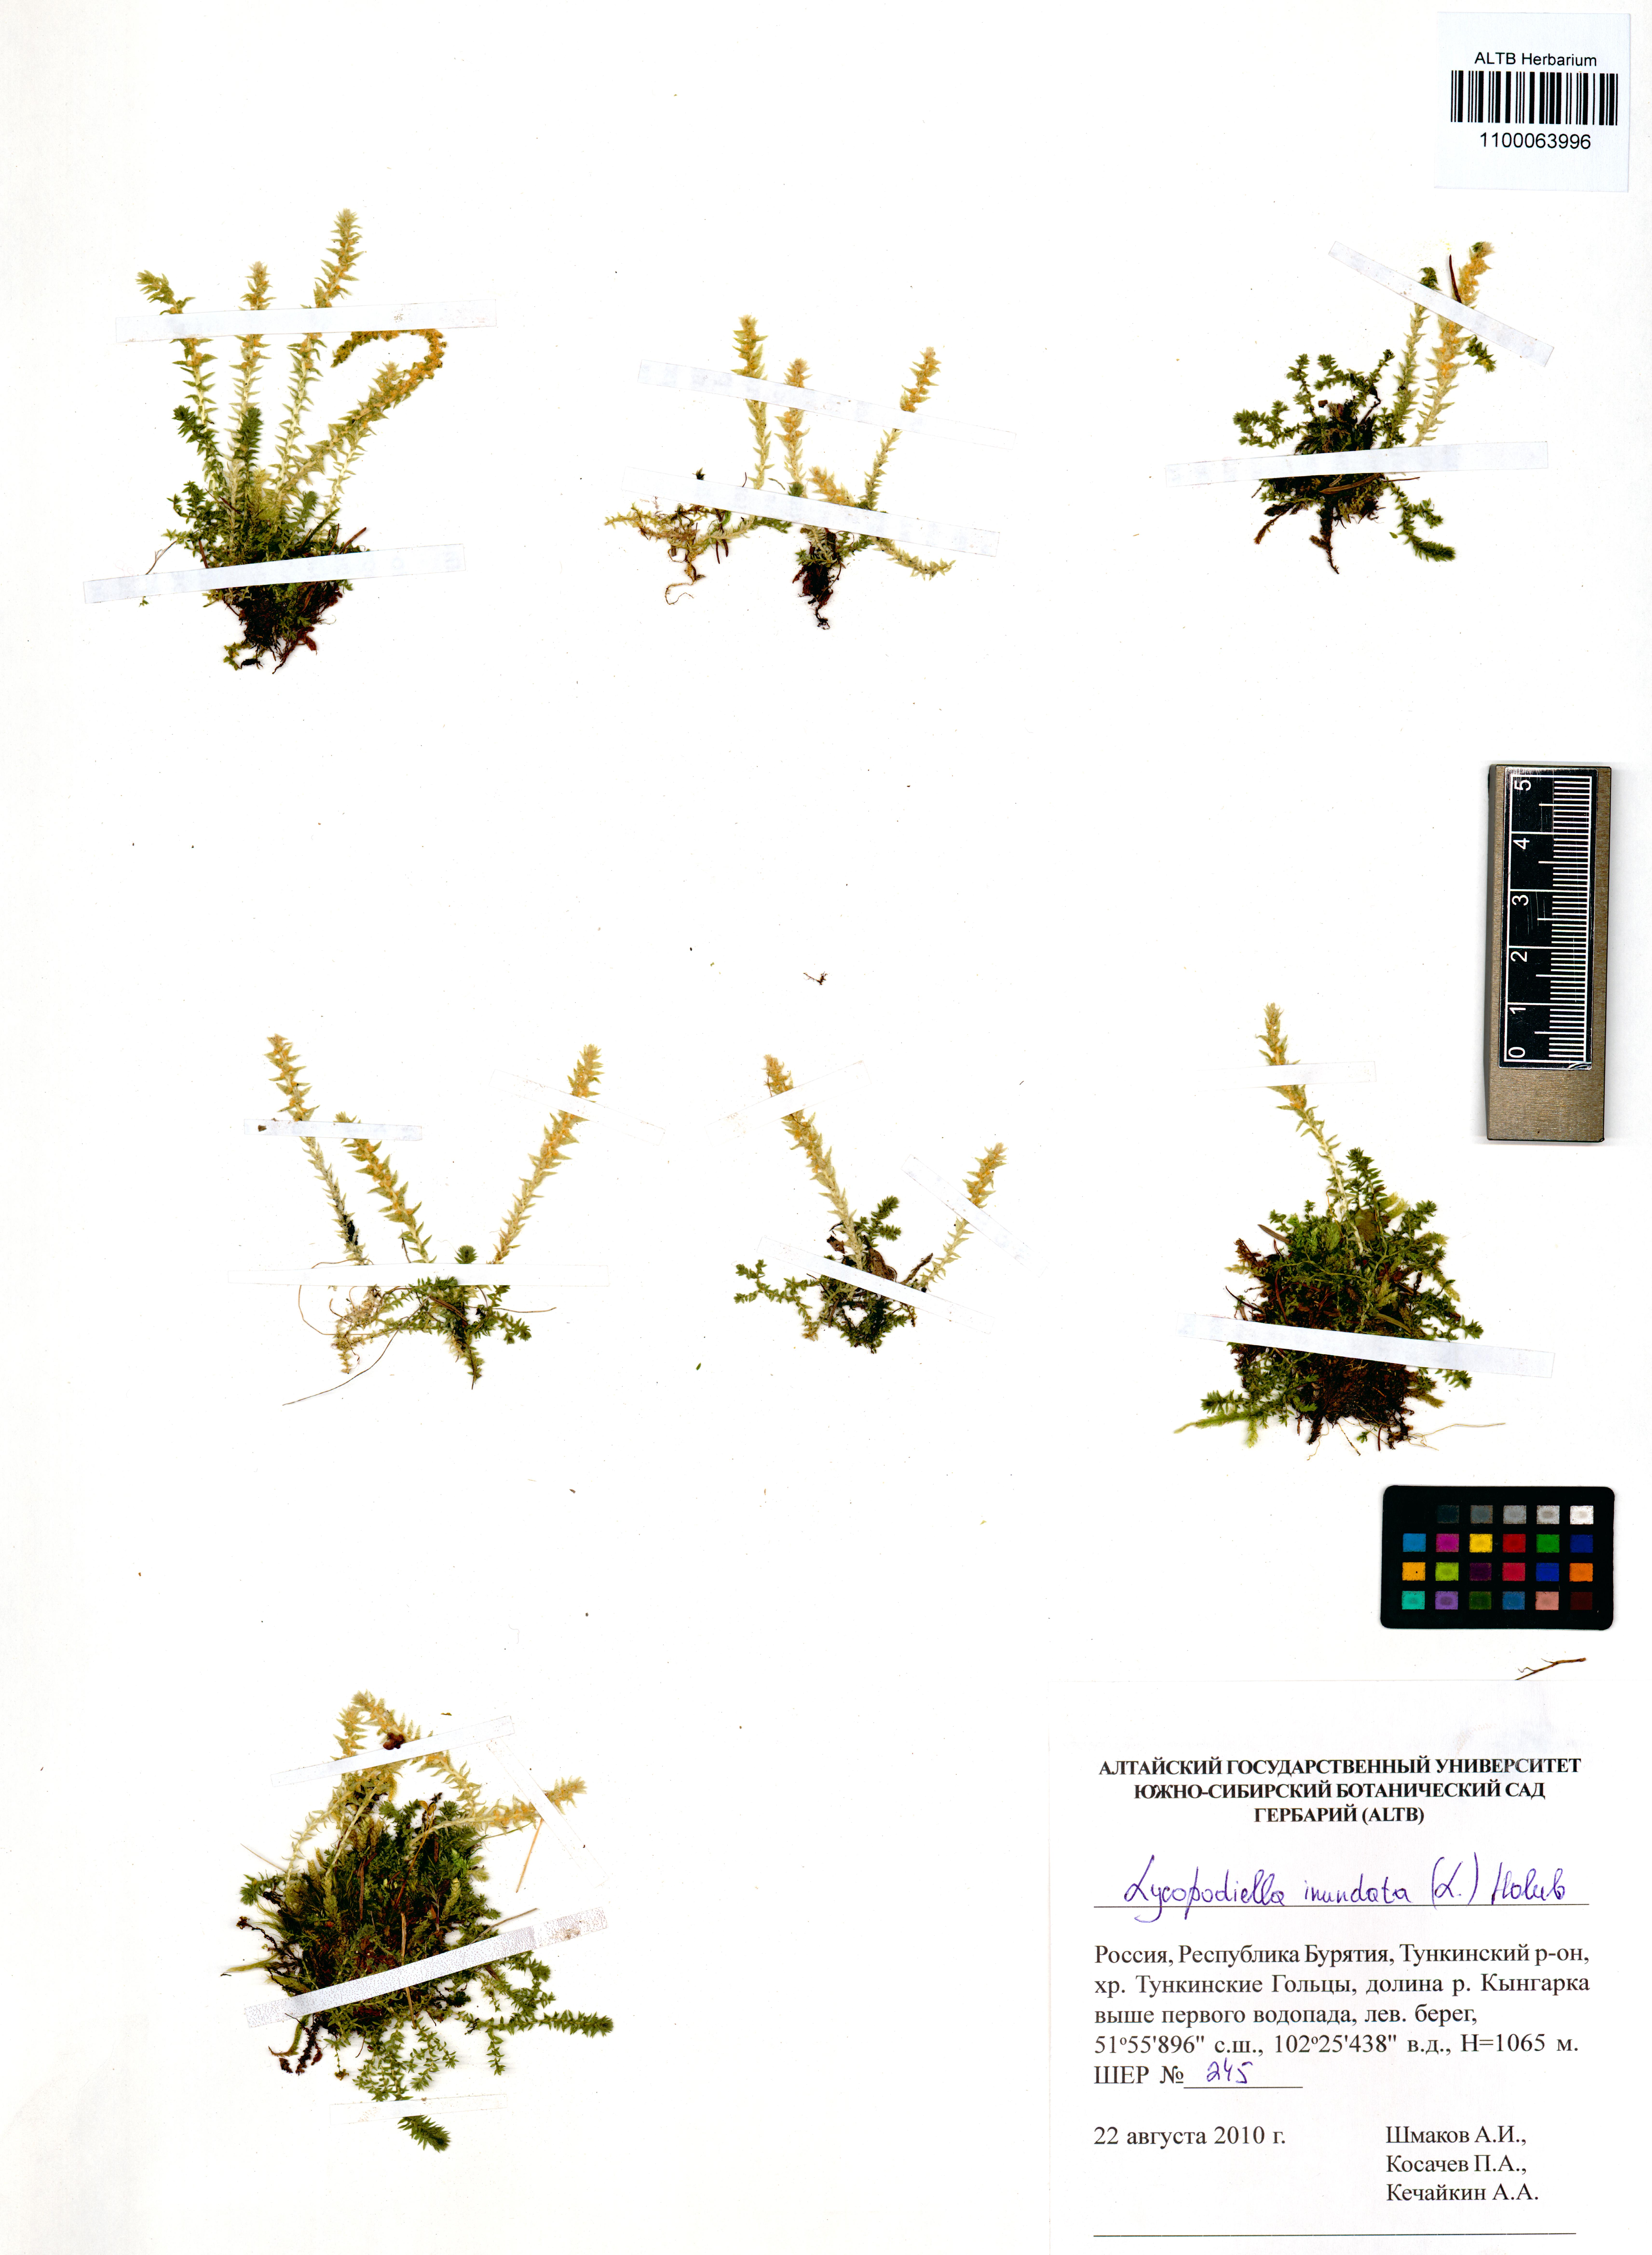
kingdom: Plantae
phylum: Tracheophyta
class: Lycopodiopsida
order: Lycopodiales
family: Lycopodiaceae
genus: Lycopodiella
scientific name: Lycopodiella inundata
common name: Marsh clubmoss
